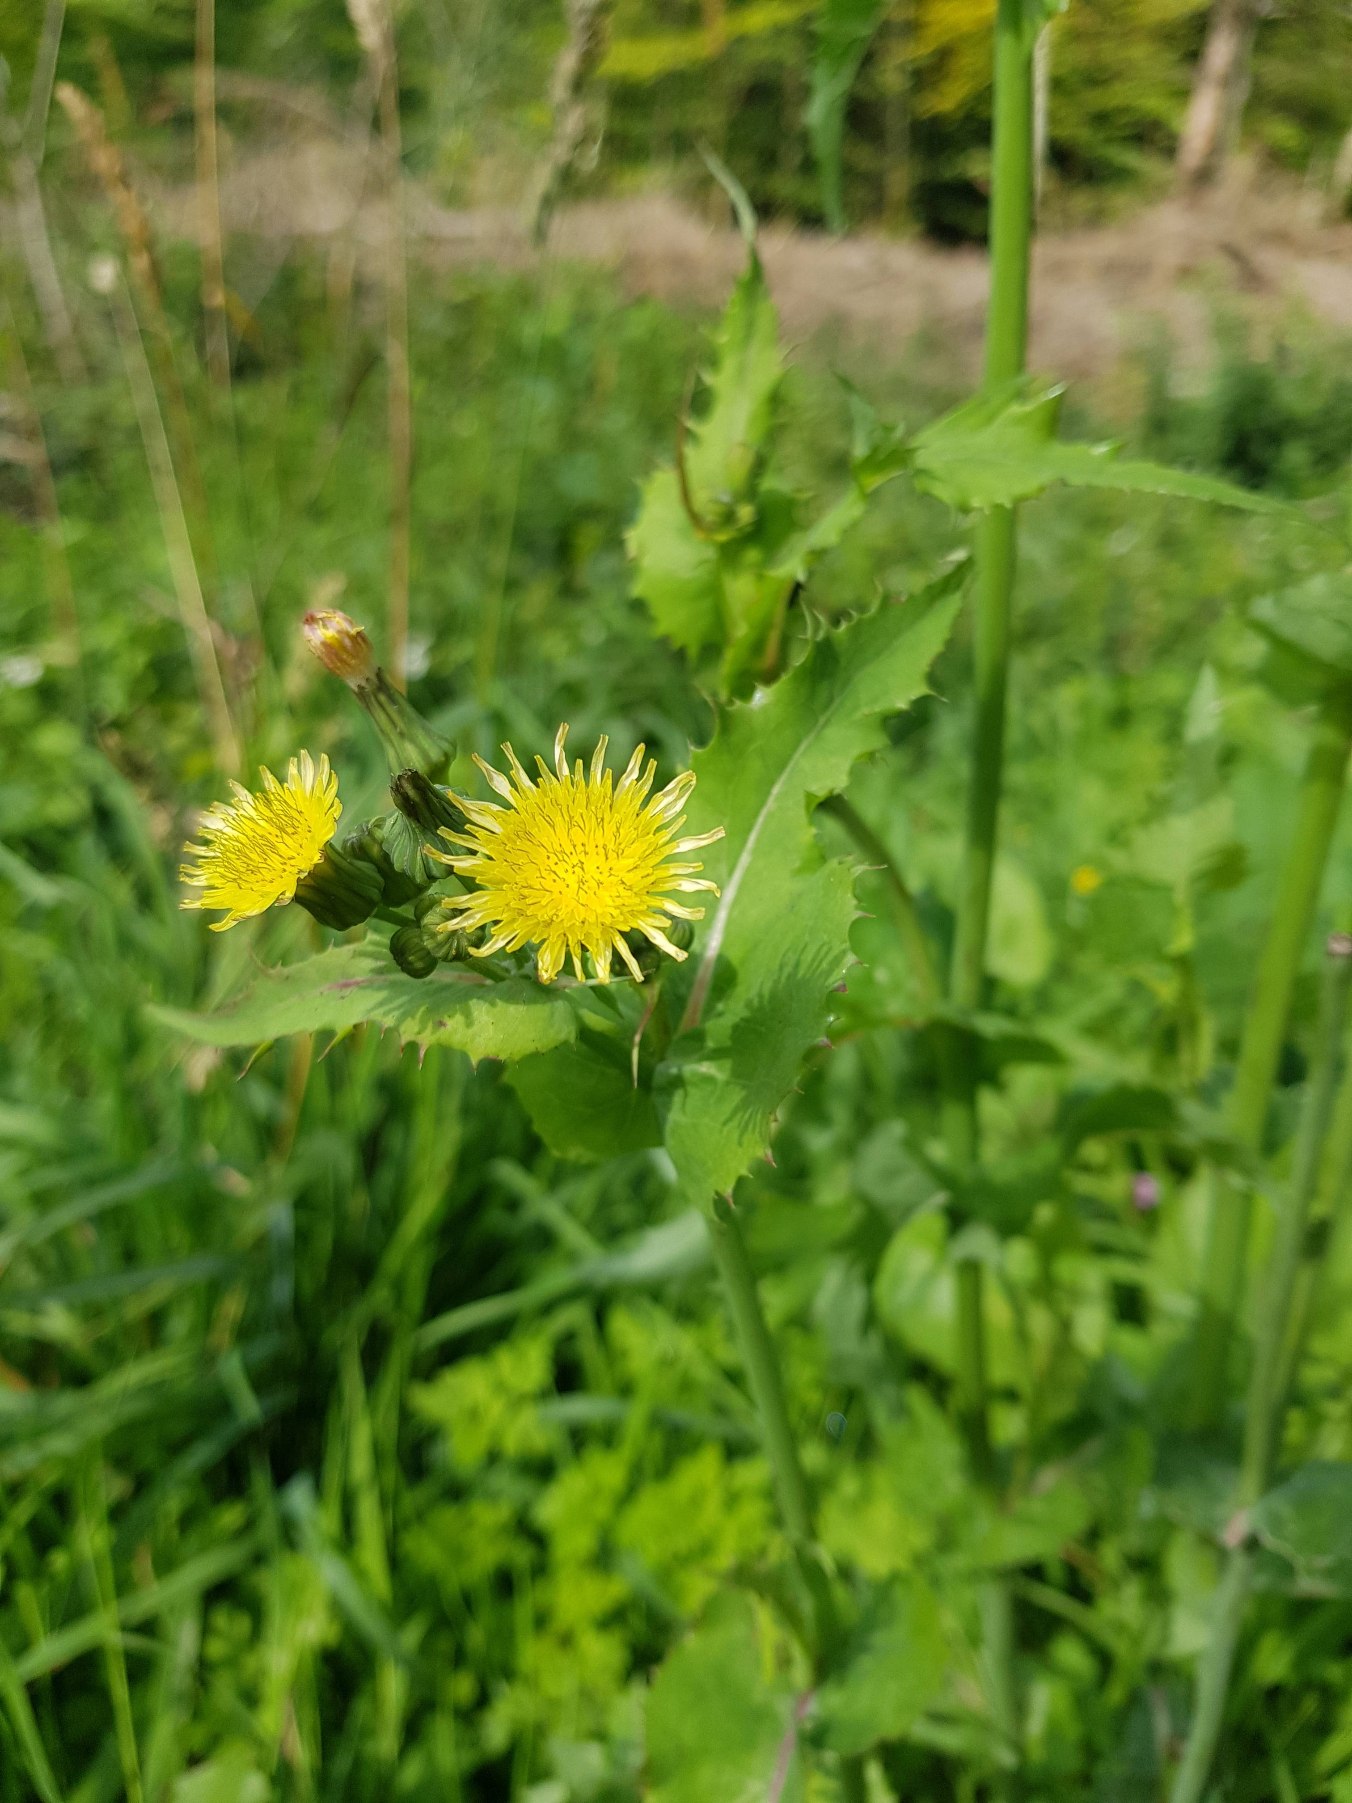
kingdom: Plantae
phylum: Tracheophyta
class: Magnoliopsida
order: Asterales
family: Asteraceae
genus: Sonchus
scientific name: Sonchus oleraceus
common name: Almindelig svinemælk
